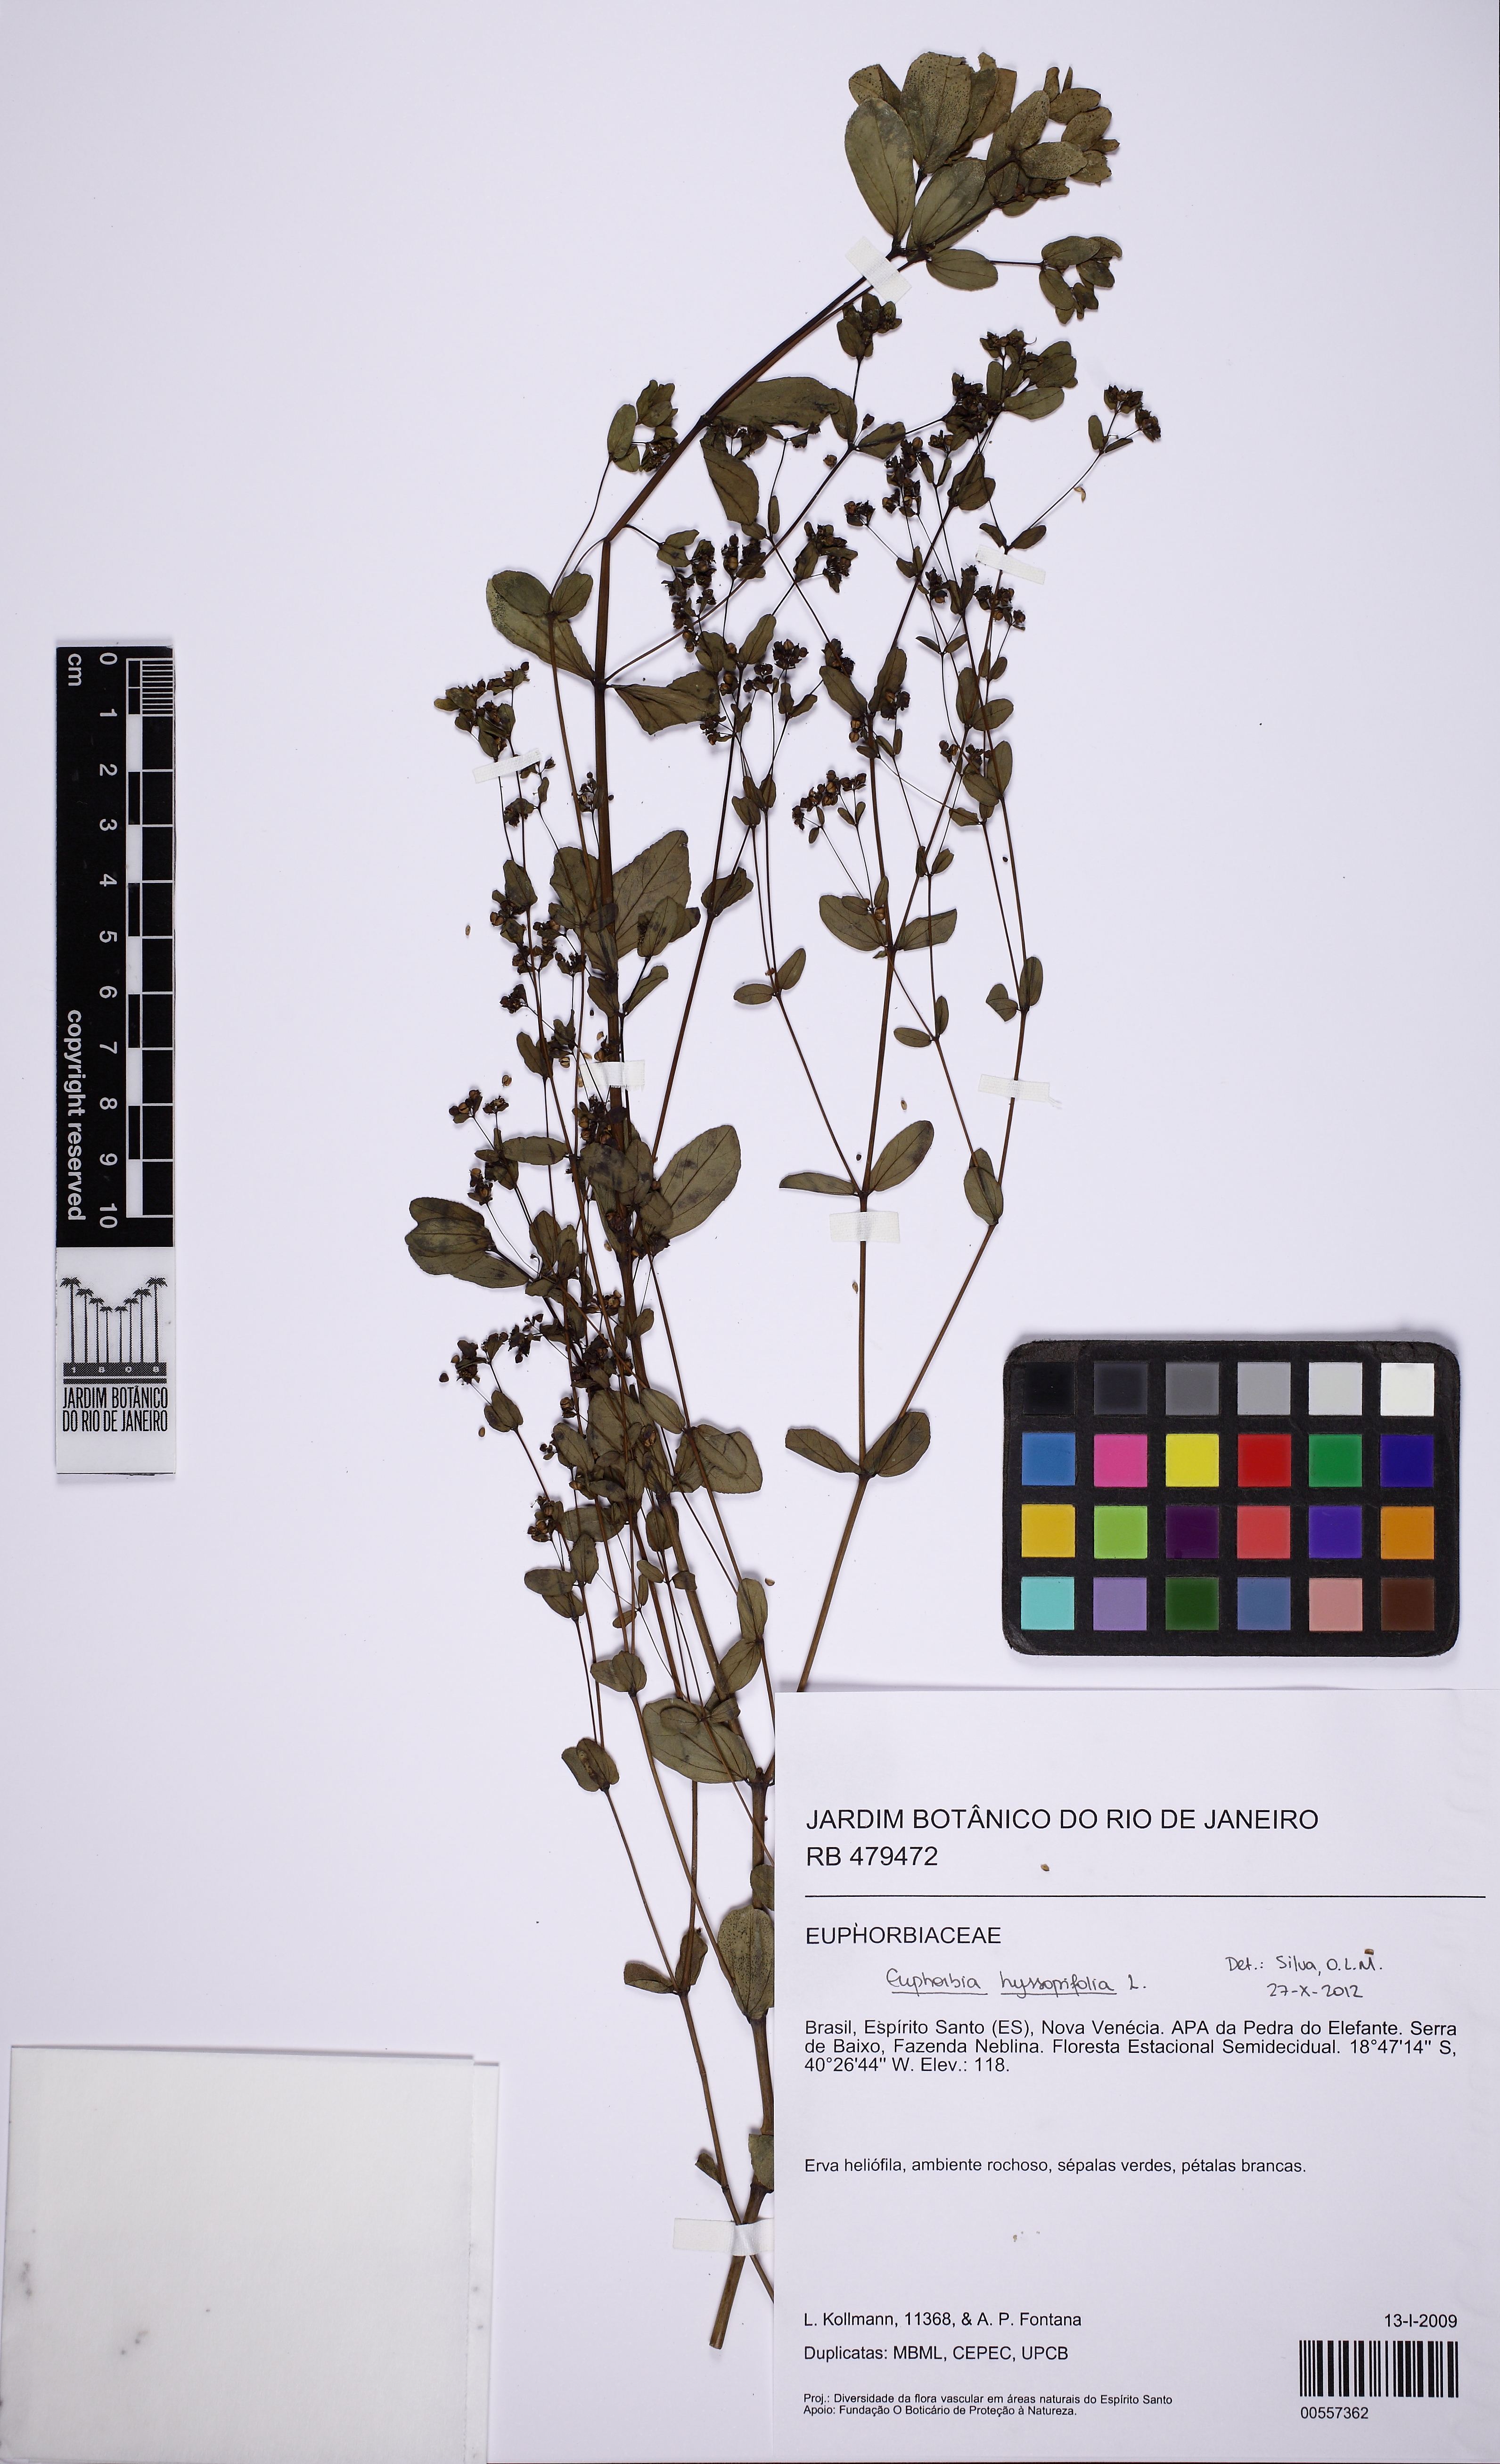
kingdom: Plantae
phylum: Tracheophyta
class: Magnoliopsida
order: Malpighiales
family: Euphorbiaceae
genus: Euphorbia
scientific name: Euphorbia hyssopifolia
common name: Hyssopleaf sandmat
